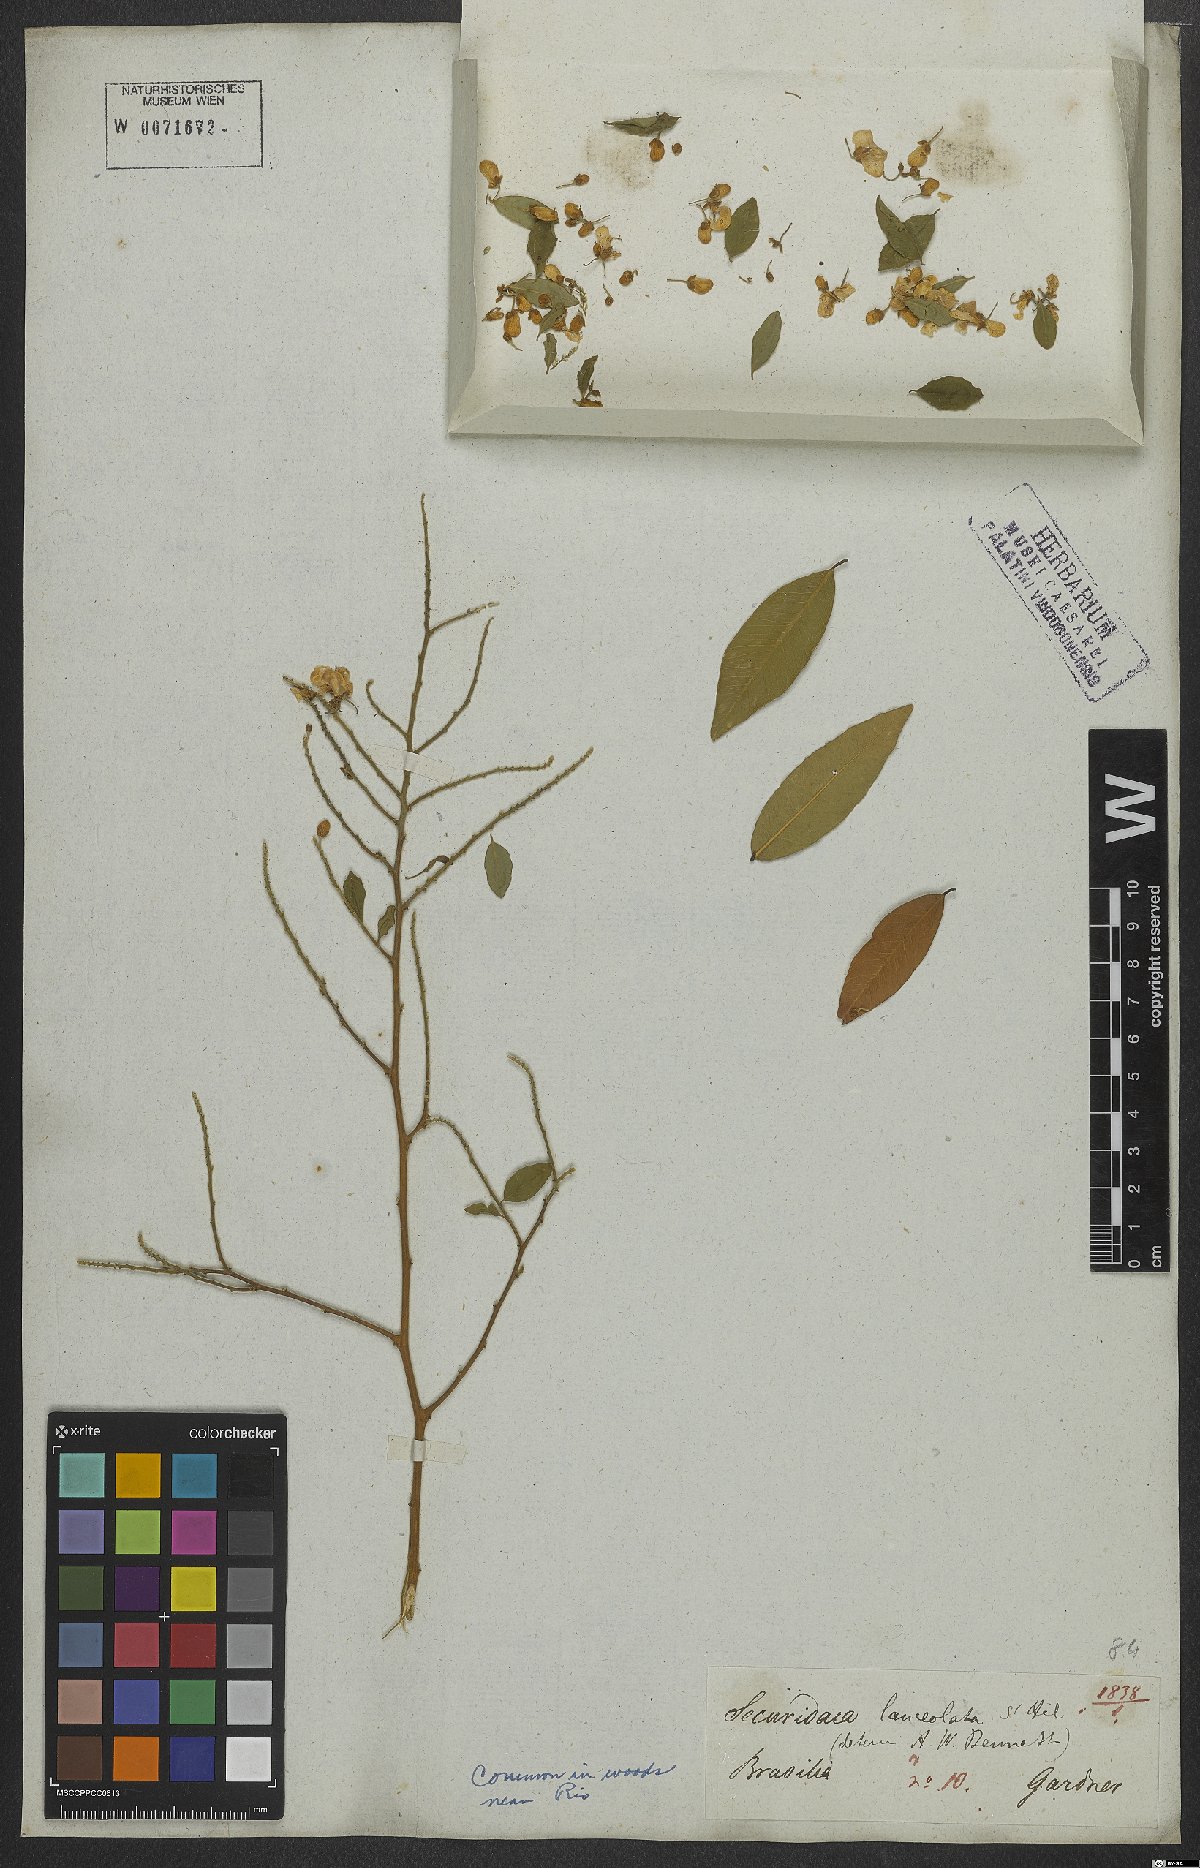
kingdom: Plantae
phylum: Tracheophyta
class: Magnoliopsida
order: Fabales
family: Polygalaceae
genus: Securidaca
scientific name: Securidaca lanceolata
